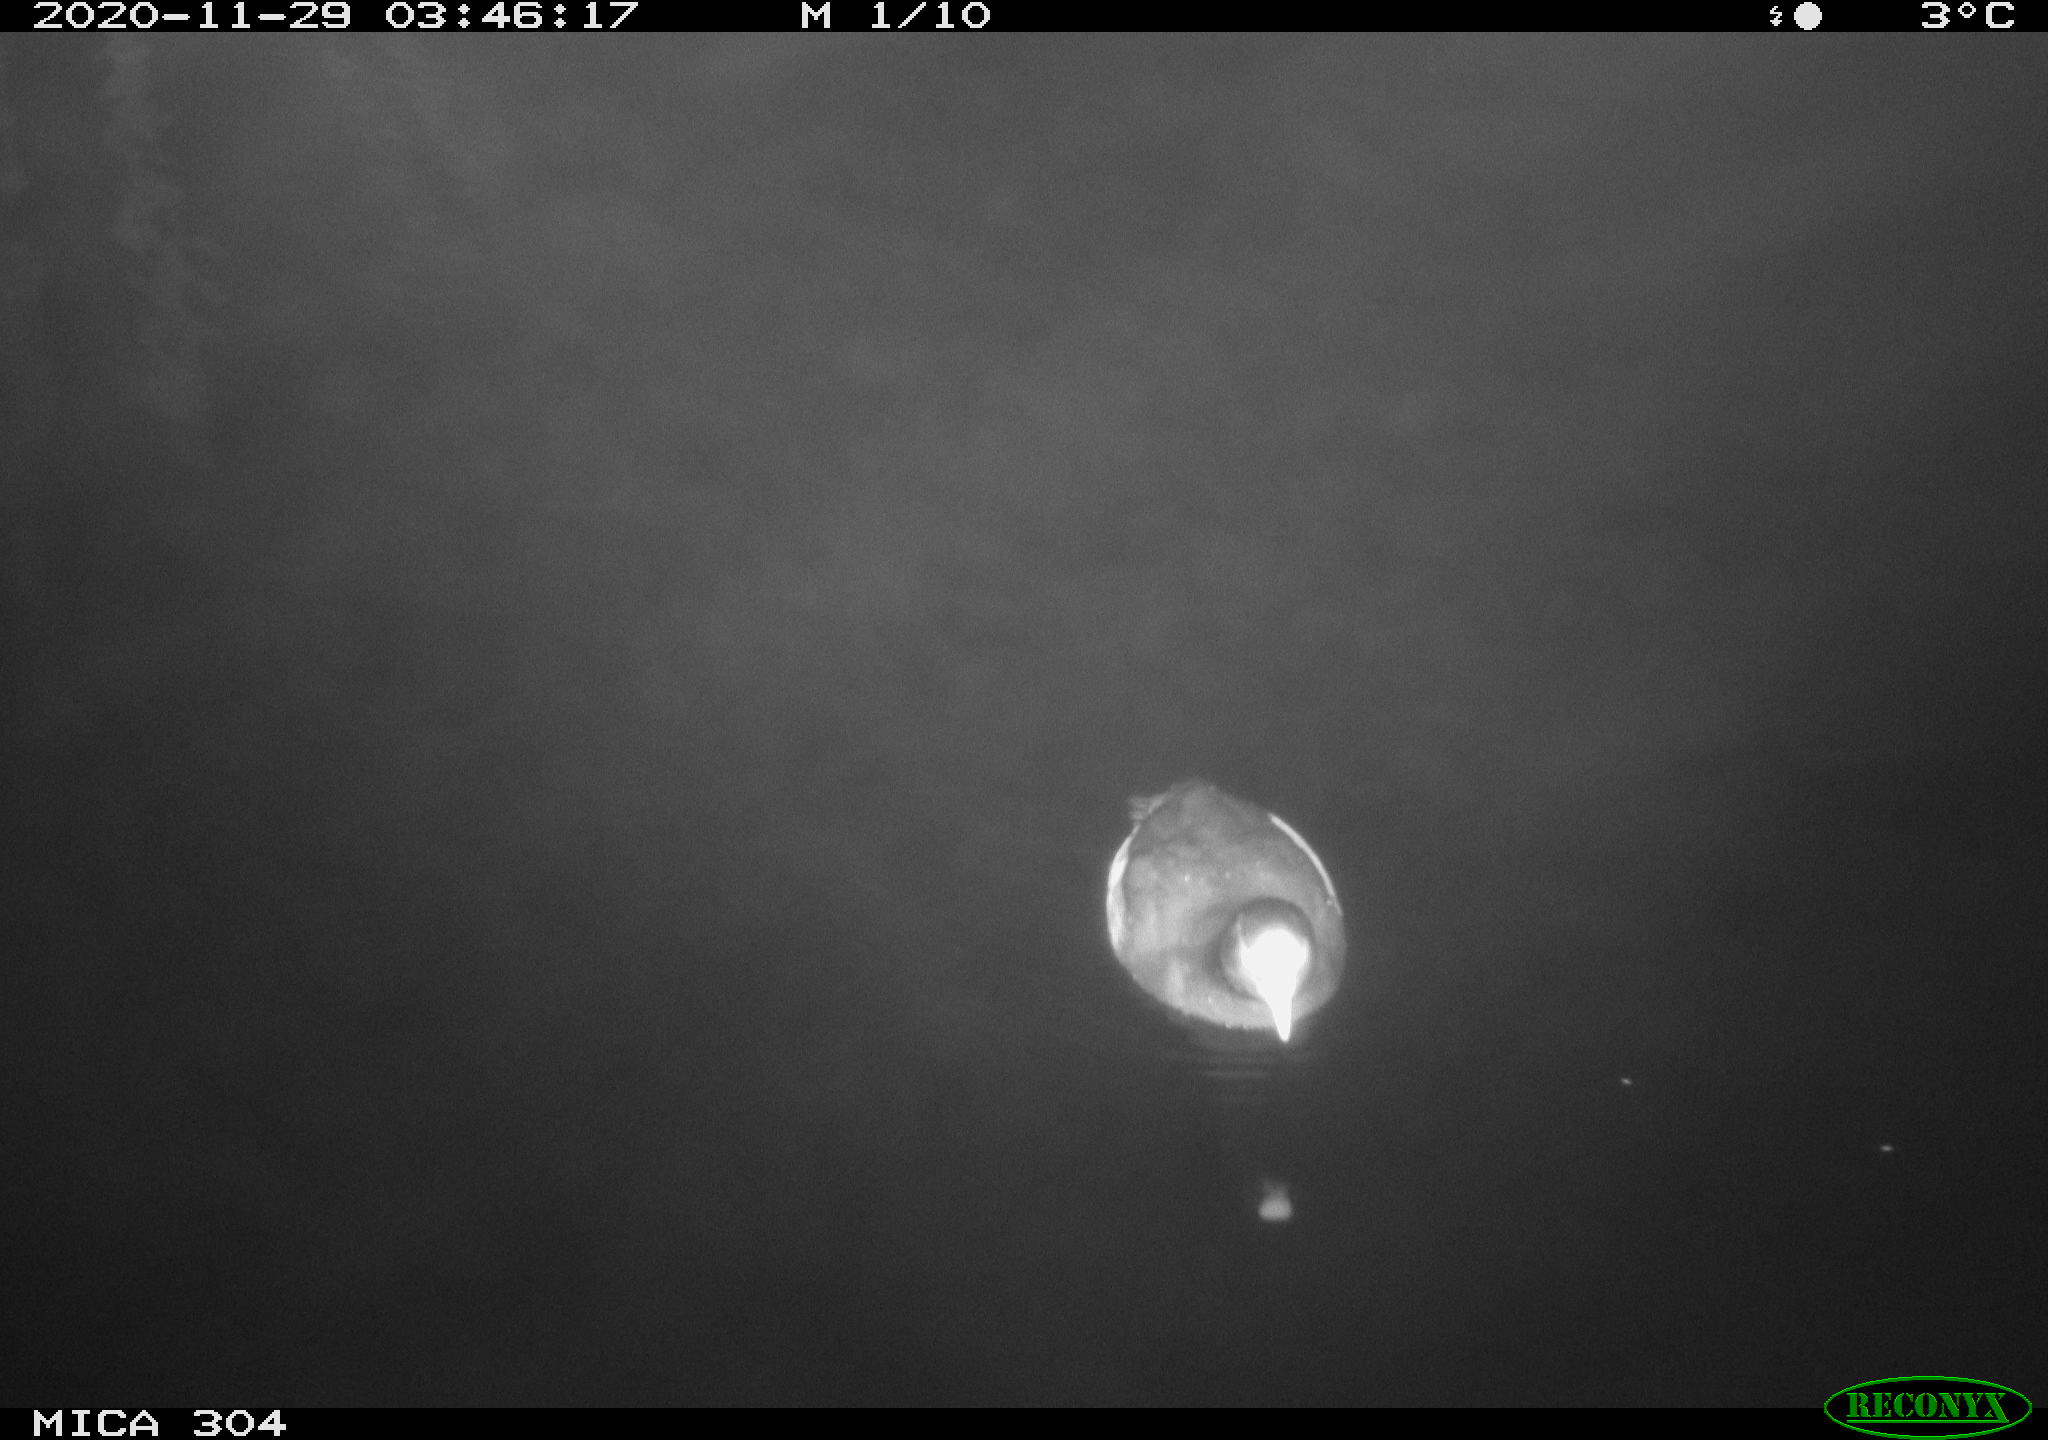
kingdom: Animalia
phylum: Chordata
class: Aves
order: Gruiformes
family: Rallidae
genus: Fulica
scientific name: Fulica atra
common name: Eurasian coot
